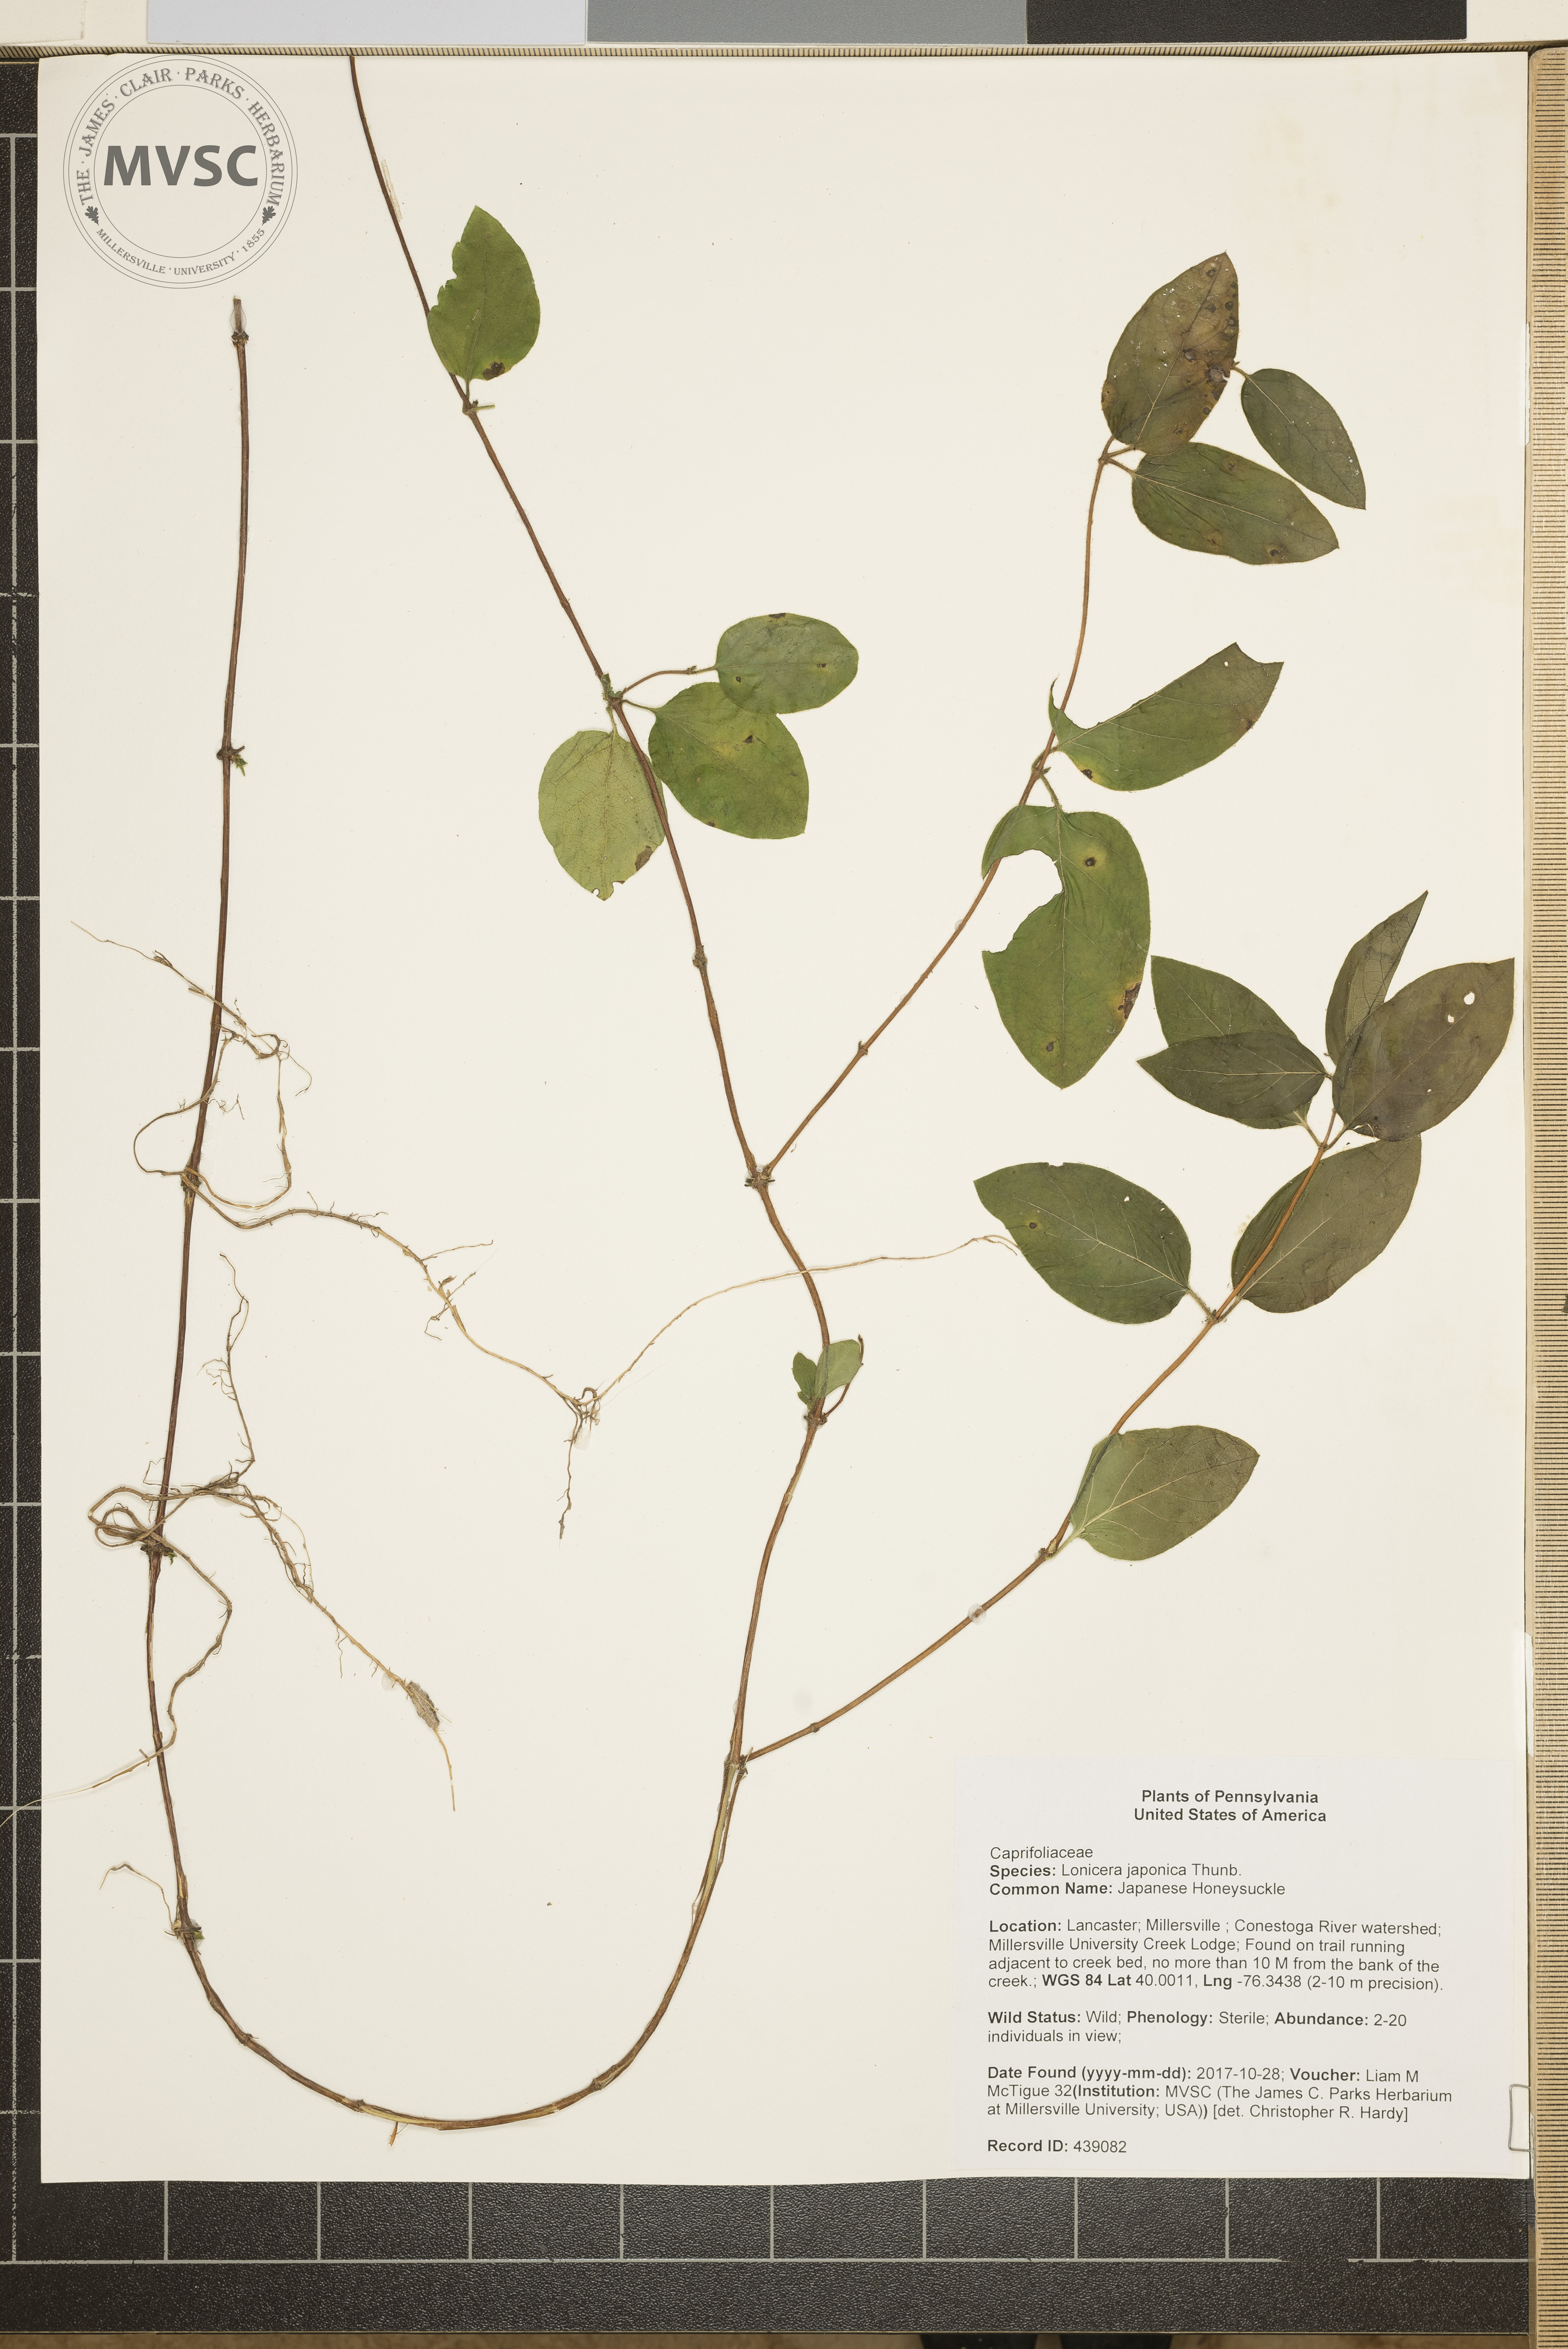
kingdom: Plantae
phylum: Tracheophyta
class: Magnoliopsida
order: Dipsacales
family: Caprifoliaceae
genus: Lonicera
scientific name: Lonicera japonica
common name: Japanese Honeysuckle
